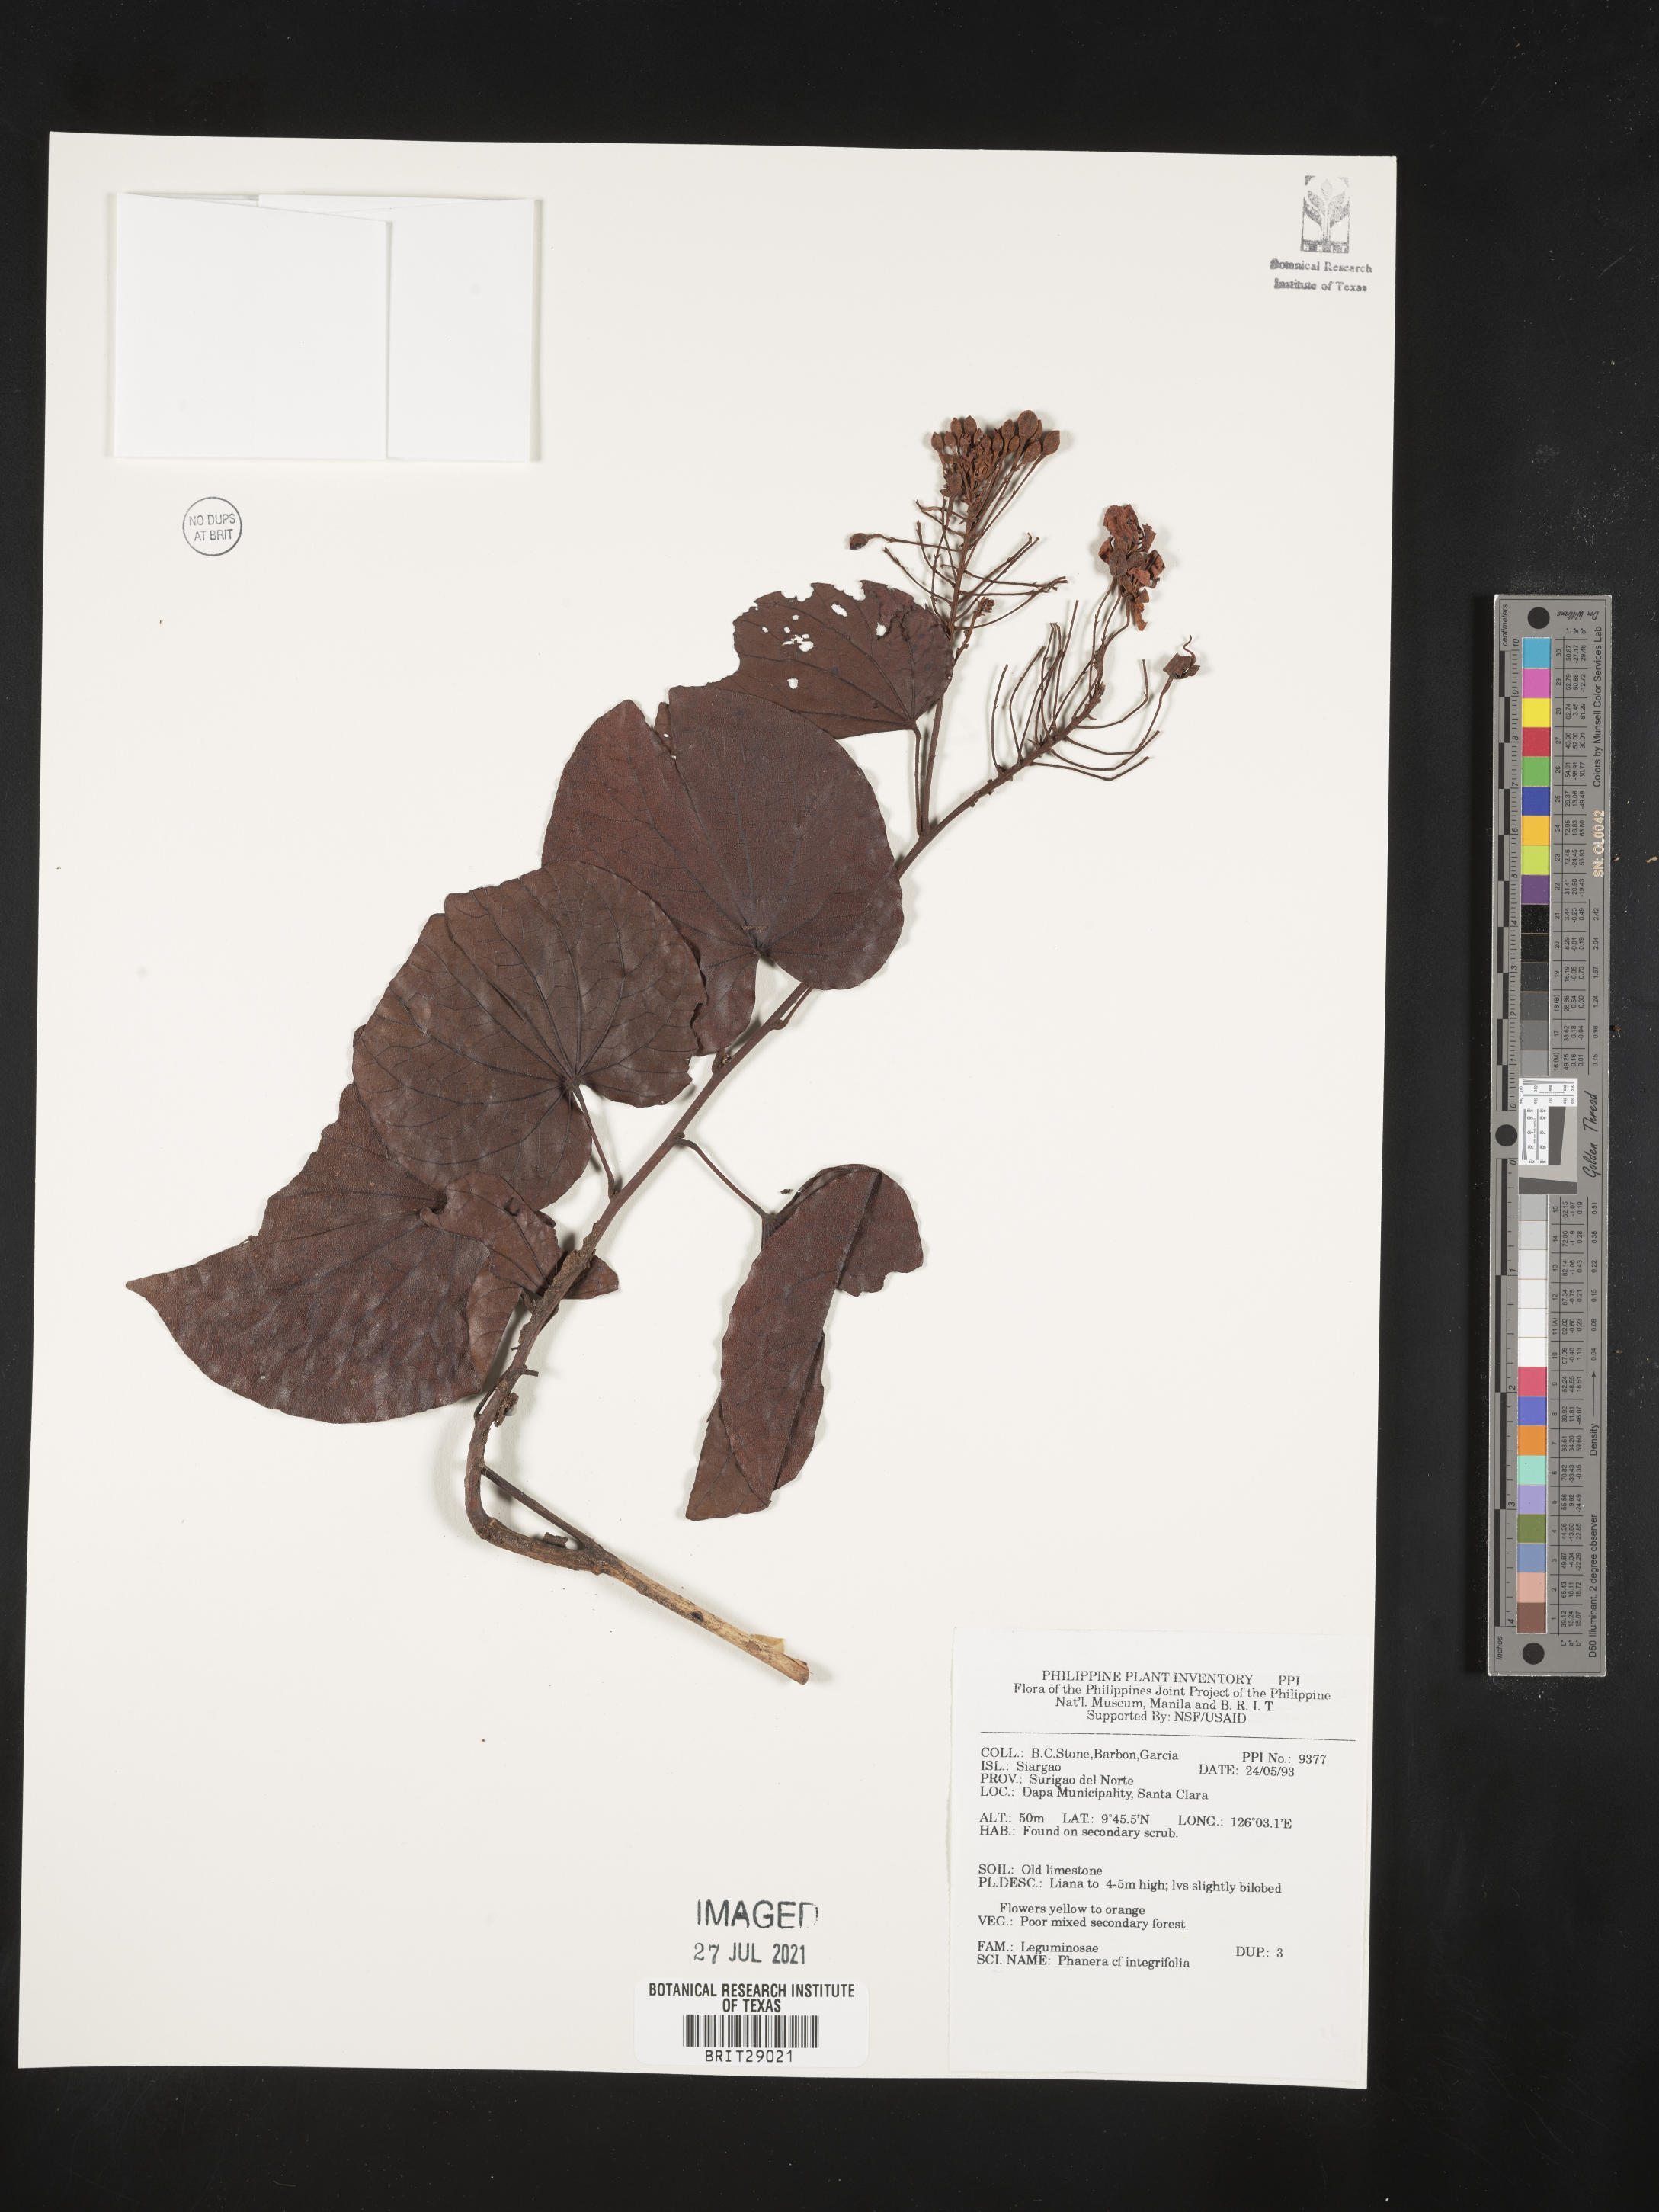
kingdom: Plantae
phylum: Tracheophyta
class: Magnoliopsida
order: Fabales
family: Fabaceae
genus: Phanera
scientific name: Phanera integrifolia
